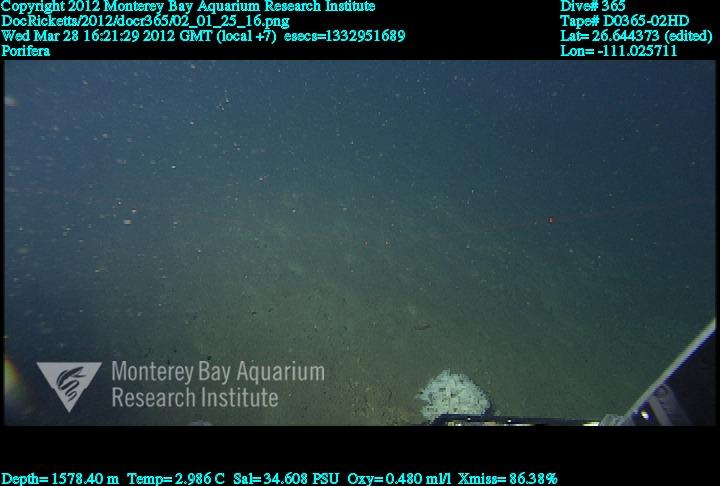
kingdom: Animalia
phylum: Porifera
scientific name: Porifera
